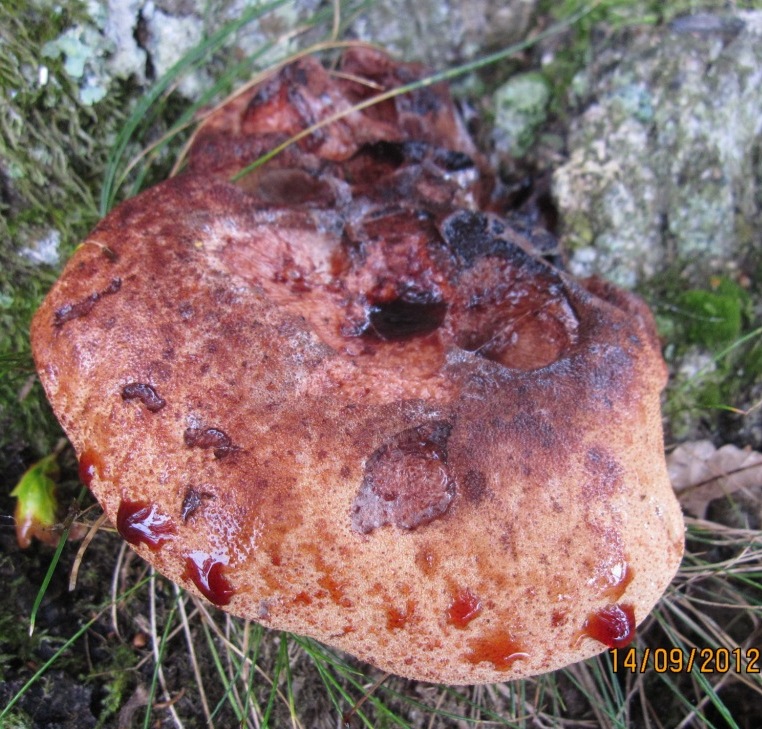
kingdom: Fungi
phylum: Basidiomycota
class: Agaricomycetes
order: Agaricales
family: Fistulinaceae
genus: Fistulina
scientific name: Fistulina hepatica
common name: oksetunge
